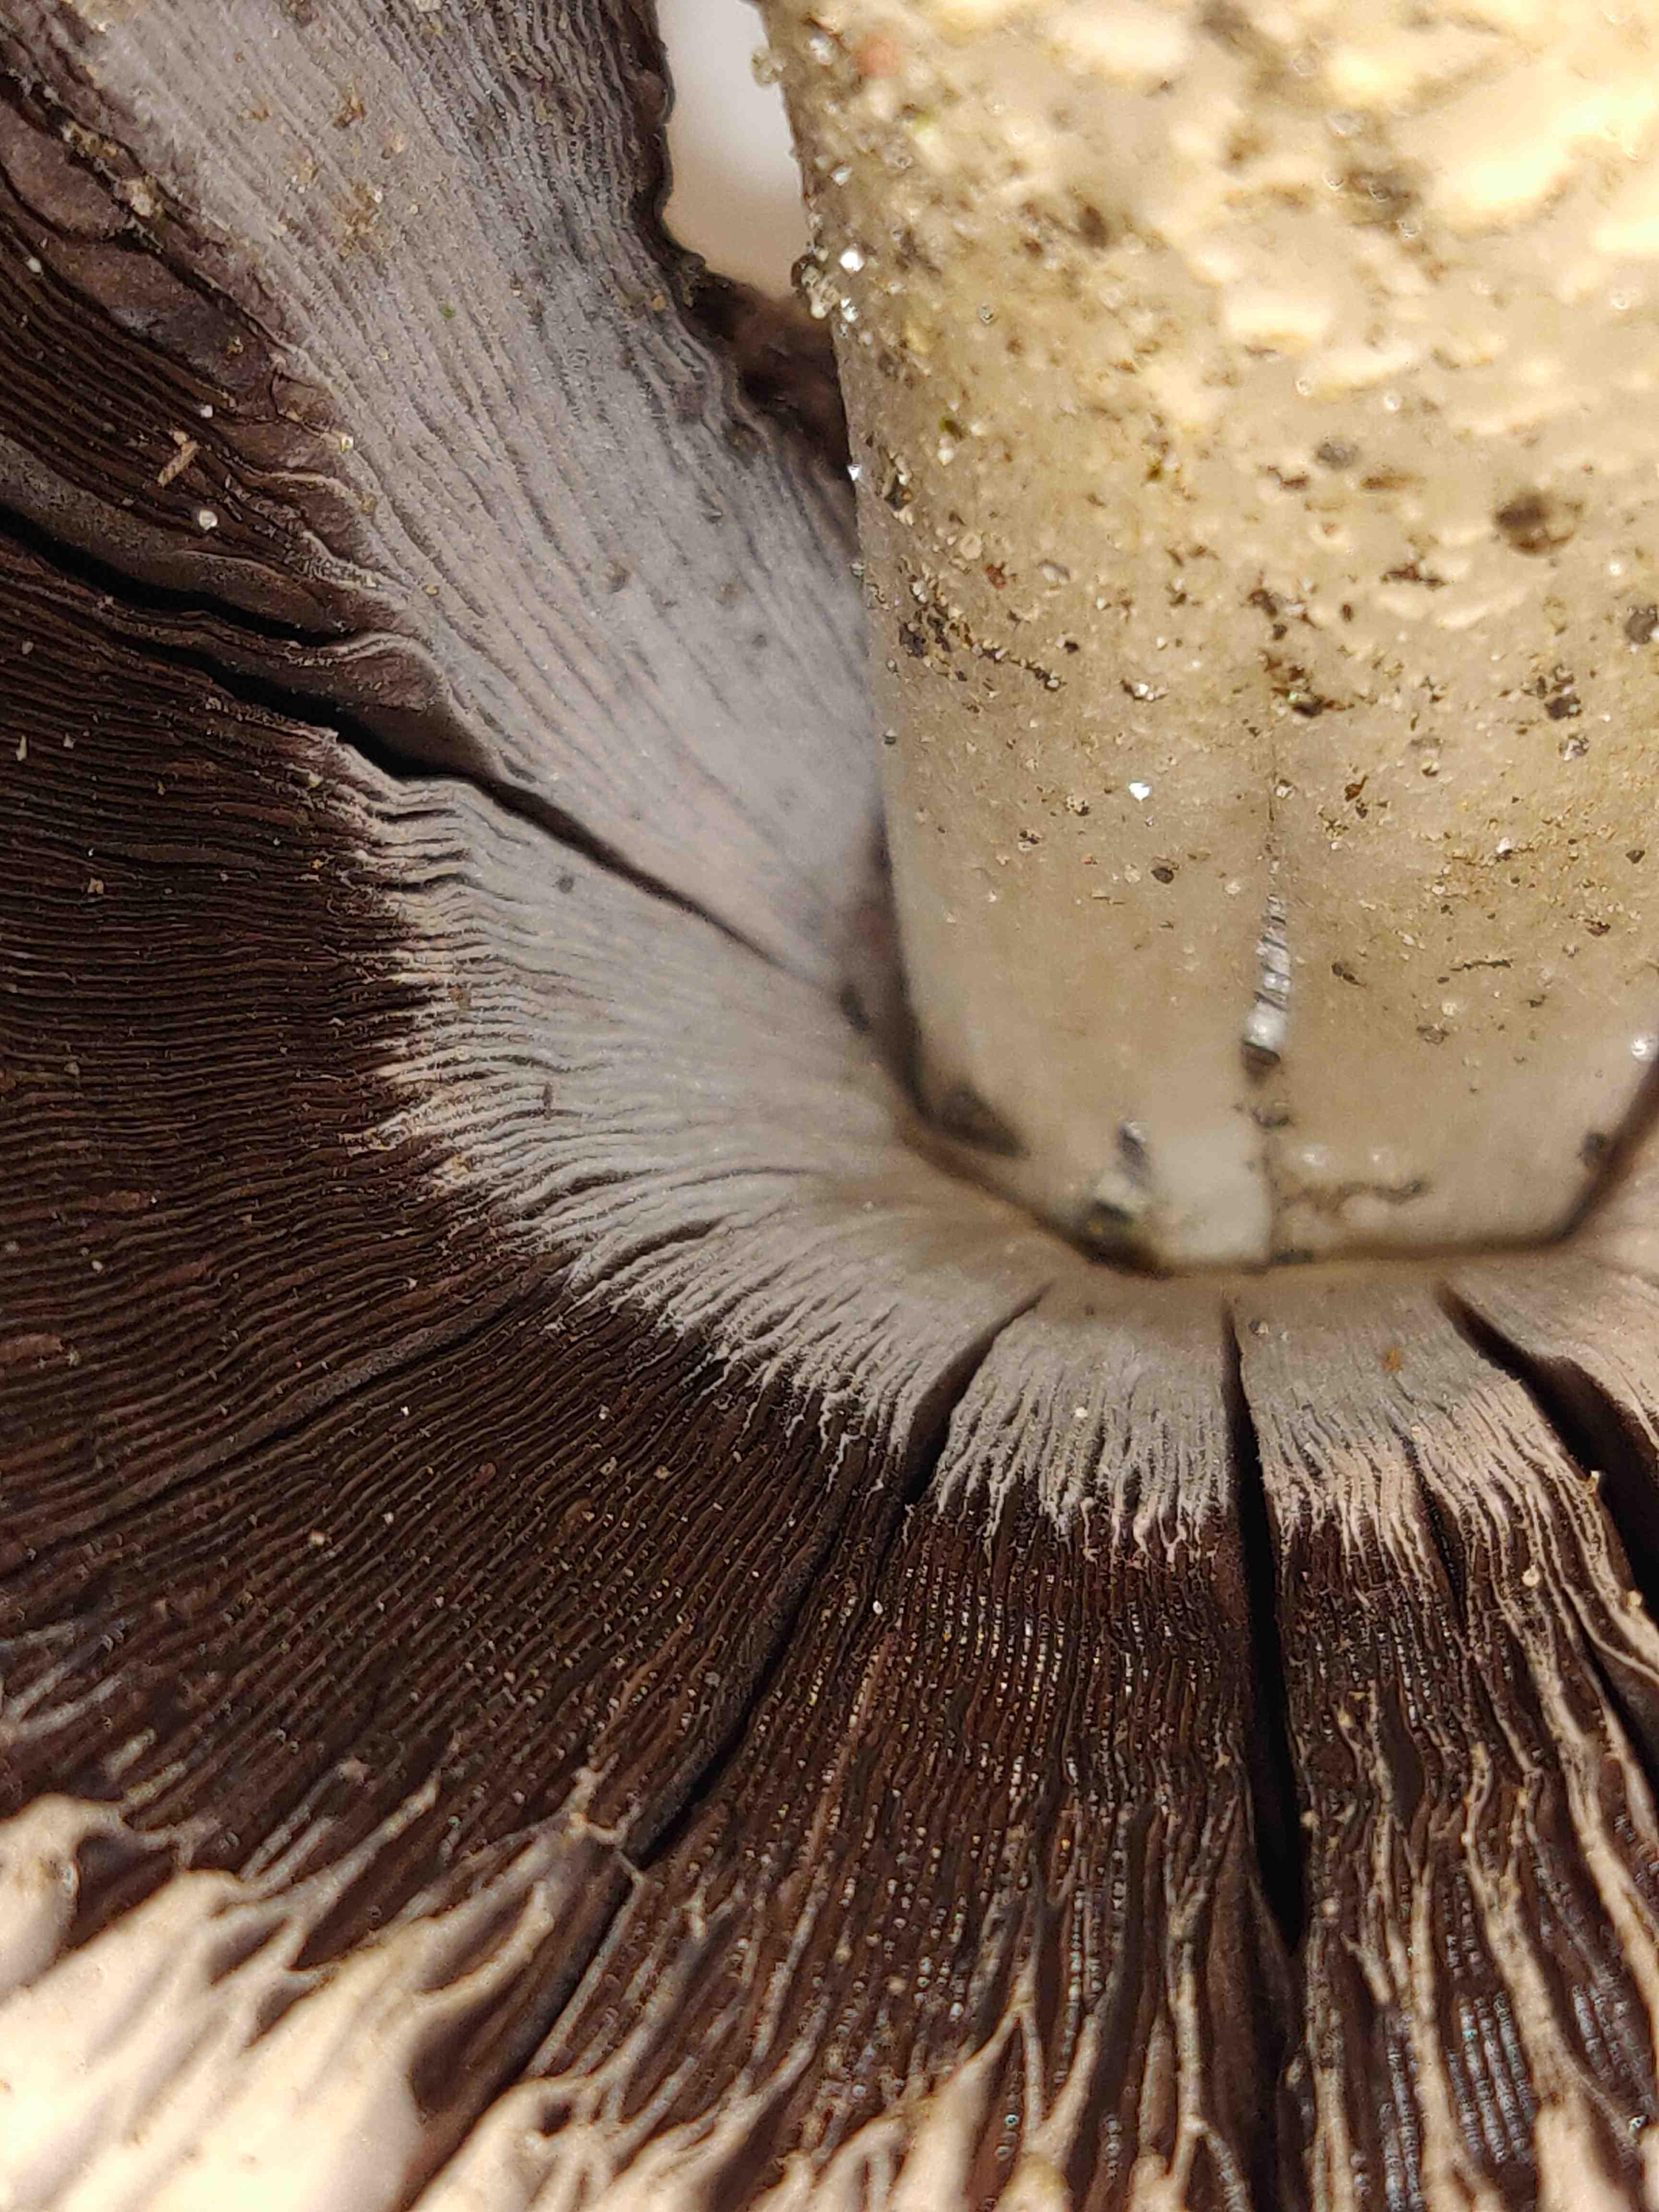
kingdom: Fungi
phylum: Basidiomycota
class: Agaricomycetes
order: Agaricales
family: Psathyrellaceae
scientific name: Psathyrellaceae
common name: mørkhatfamilien
